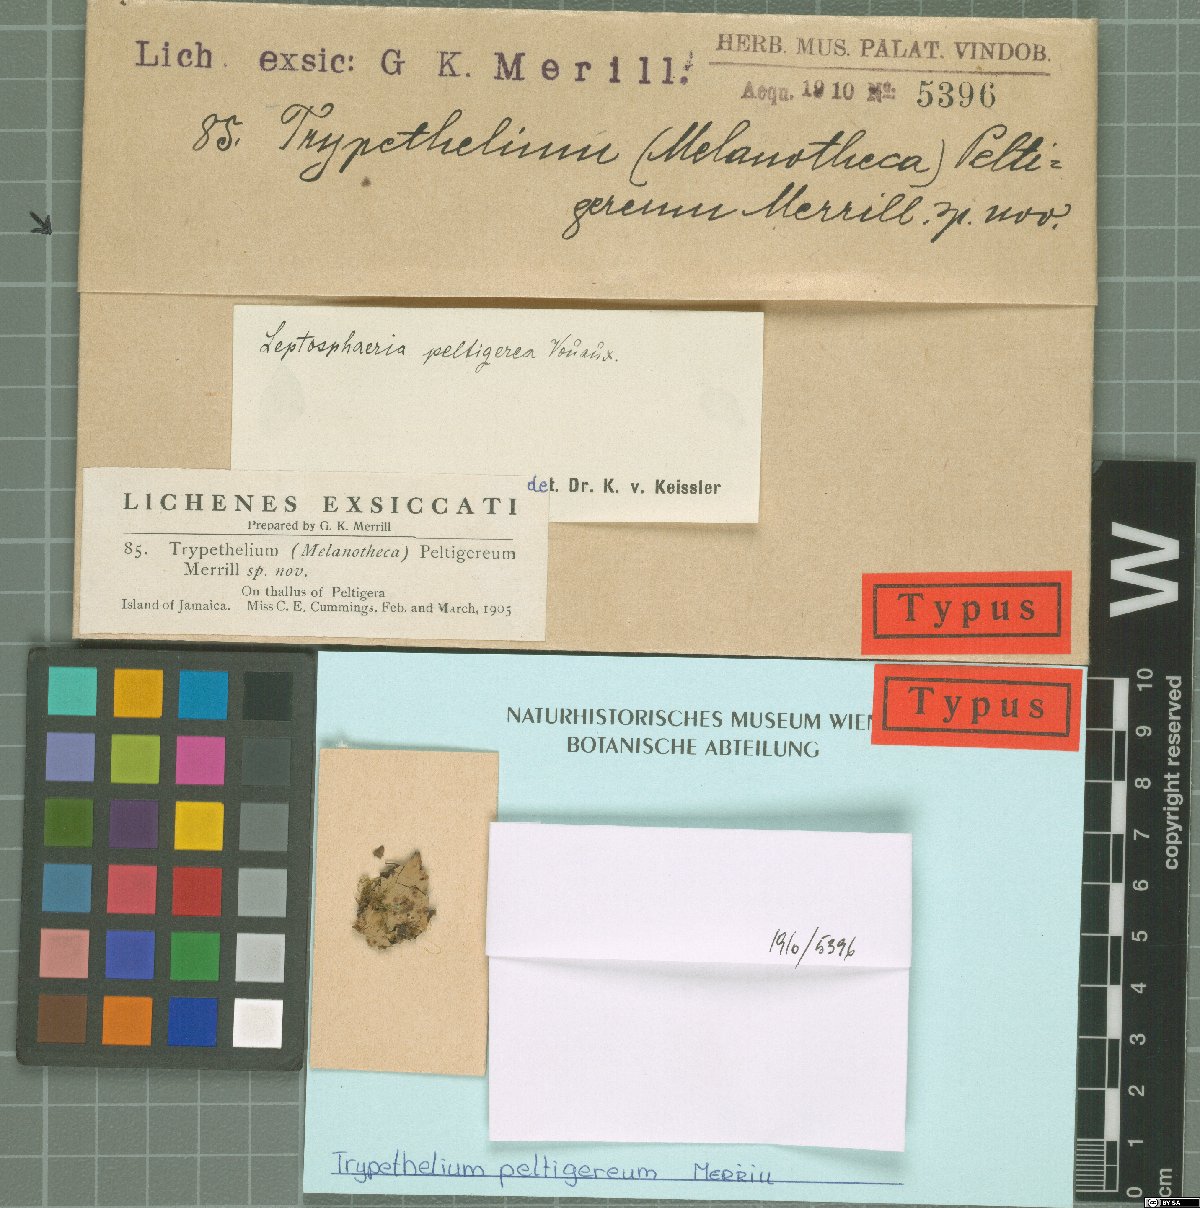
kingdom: Fungi
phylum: Ascomycota
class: Dothideomycetes
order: Pleosporales
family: Pyrenidiaceae
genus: Pyrenidium
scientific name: Pyrenidium actinellum
